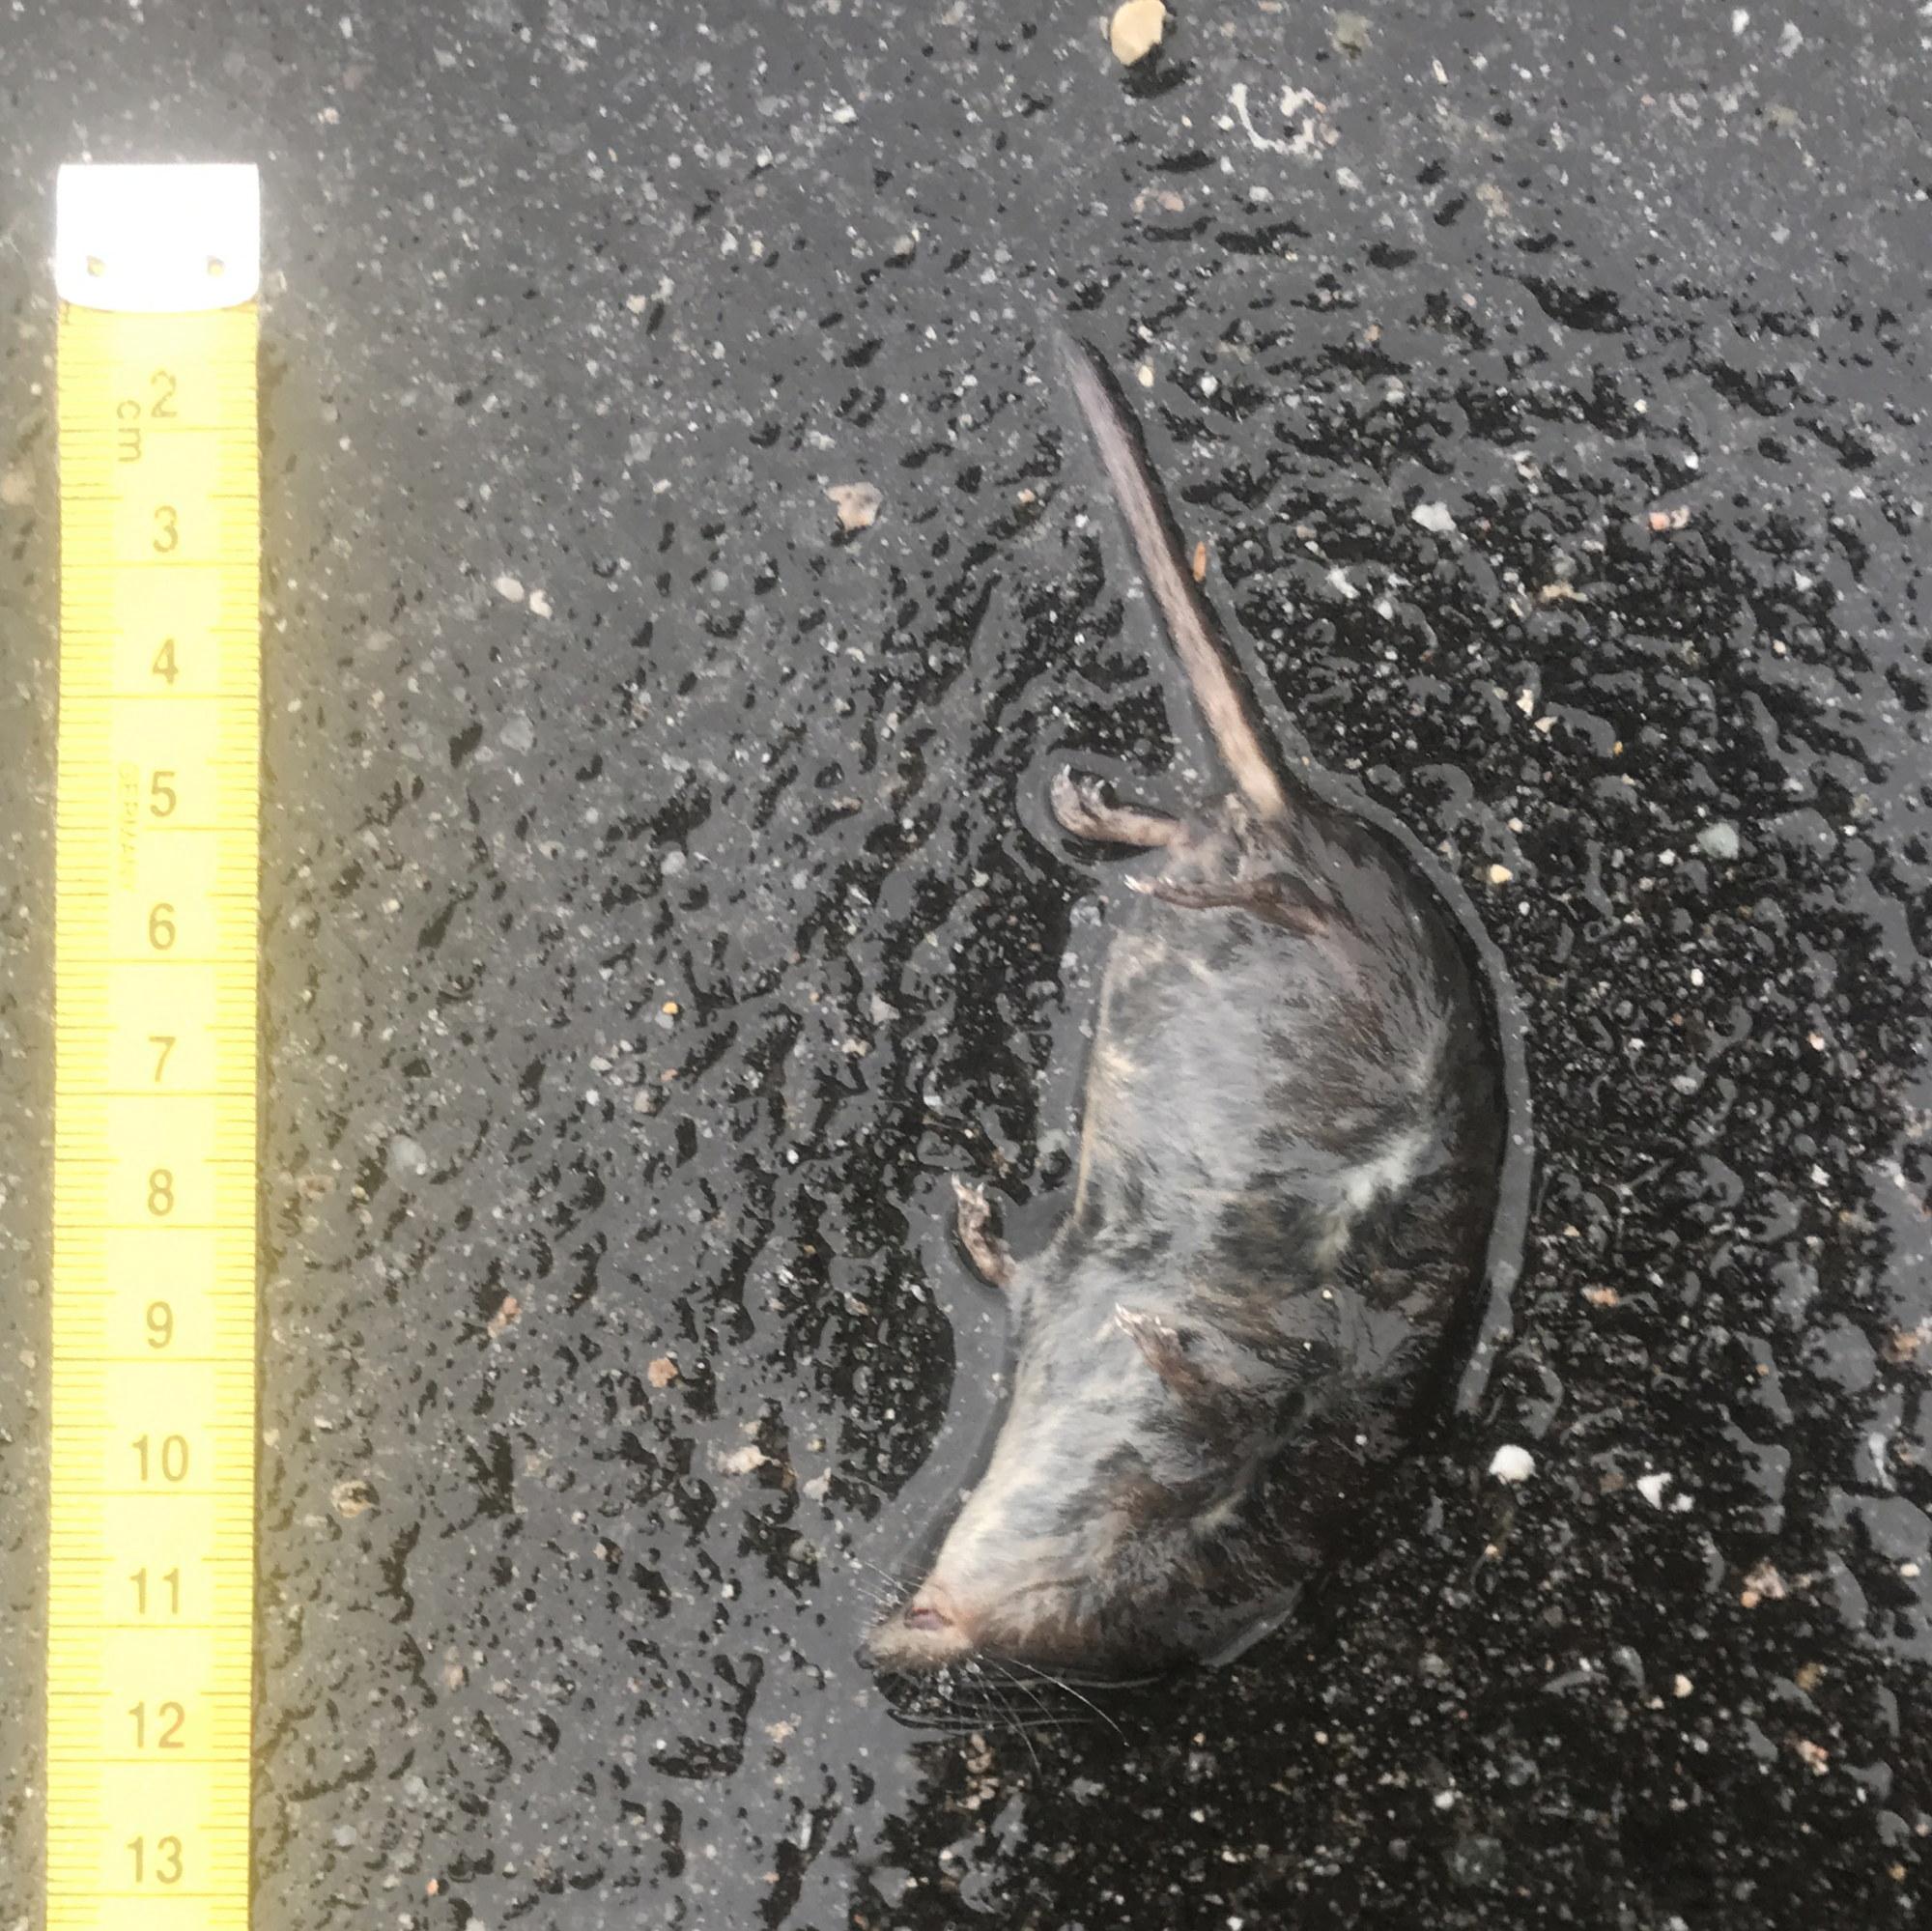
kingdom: Animalia
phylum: Chordata
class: Mammalia
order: Soricomorpha
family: Soricidae
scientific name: Soricidae
